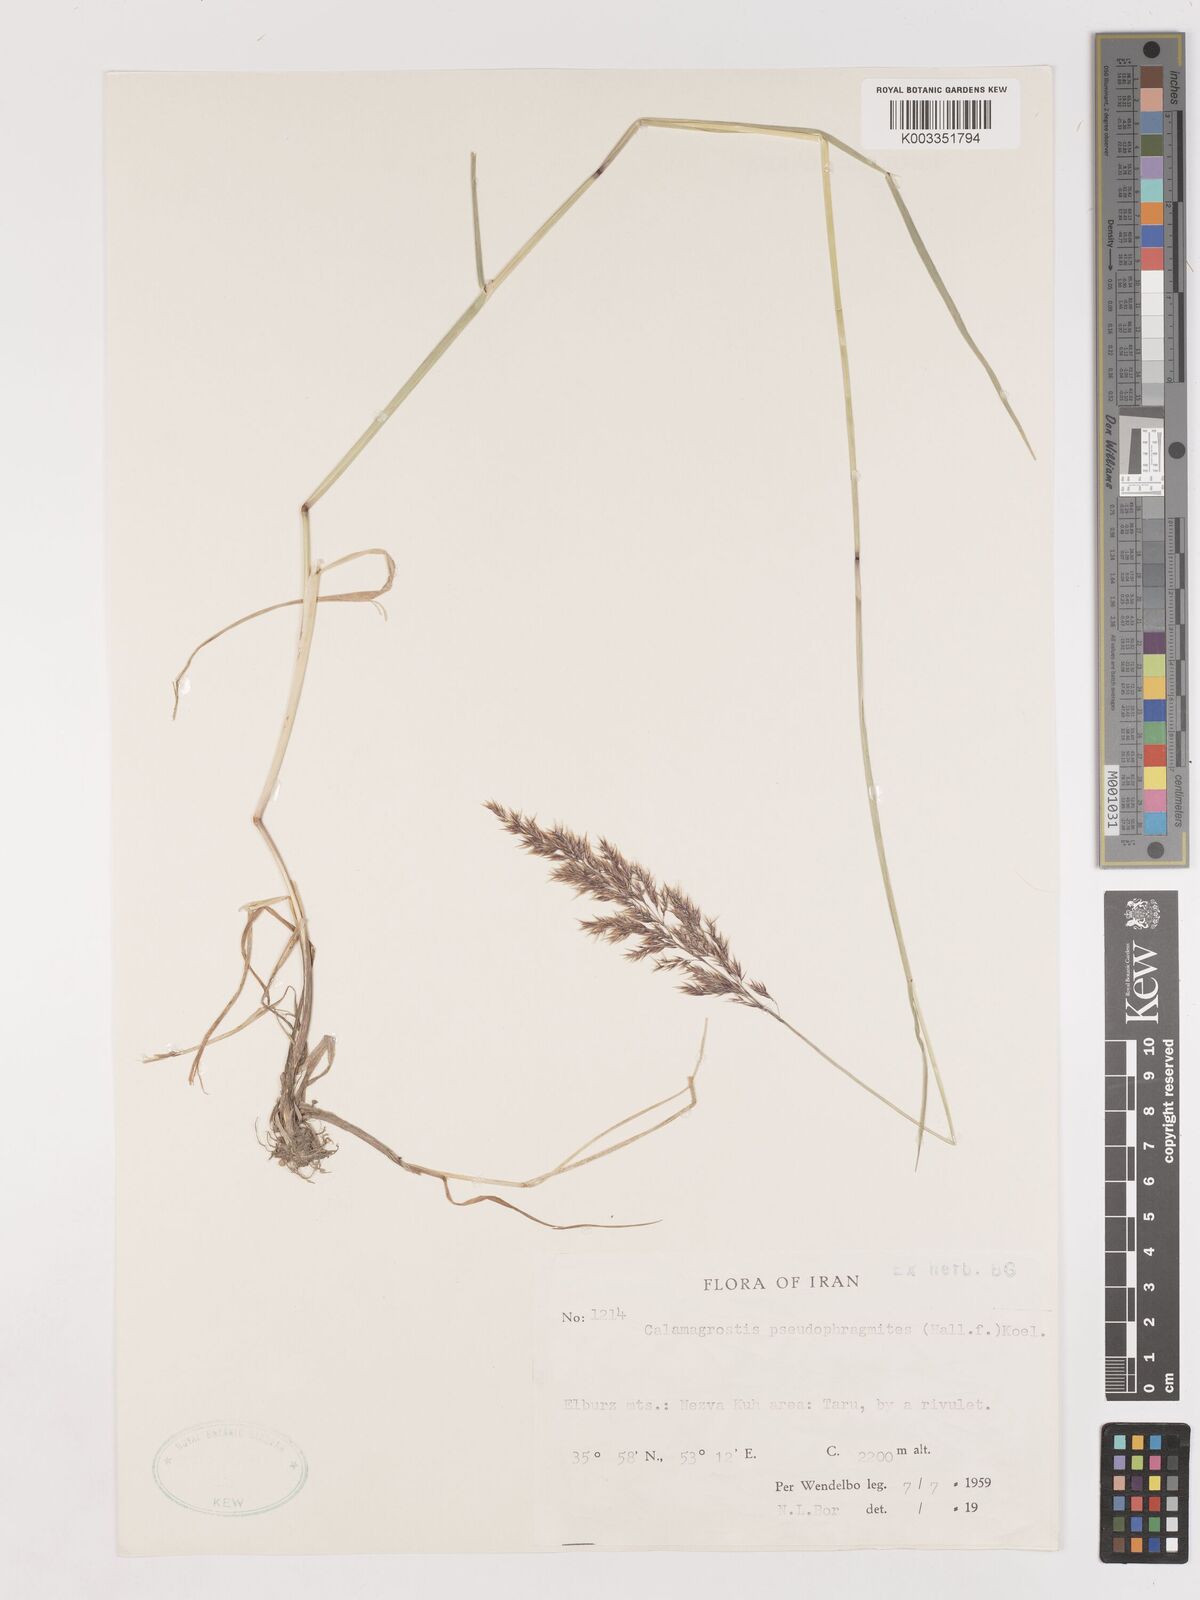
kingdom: Plantae
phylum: Tracheophyta
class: Liliopsida
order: Poales
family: Poaceae
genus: Calamagrostis
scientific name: Calamagrostis pseudophragmites
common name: Coastal small-reed
